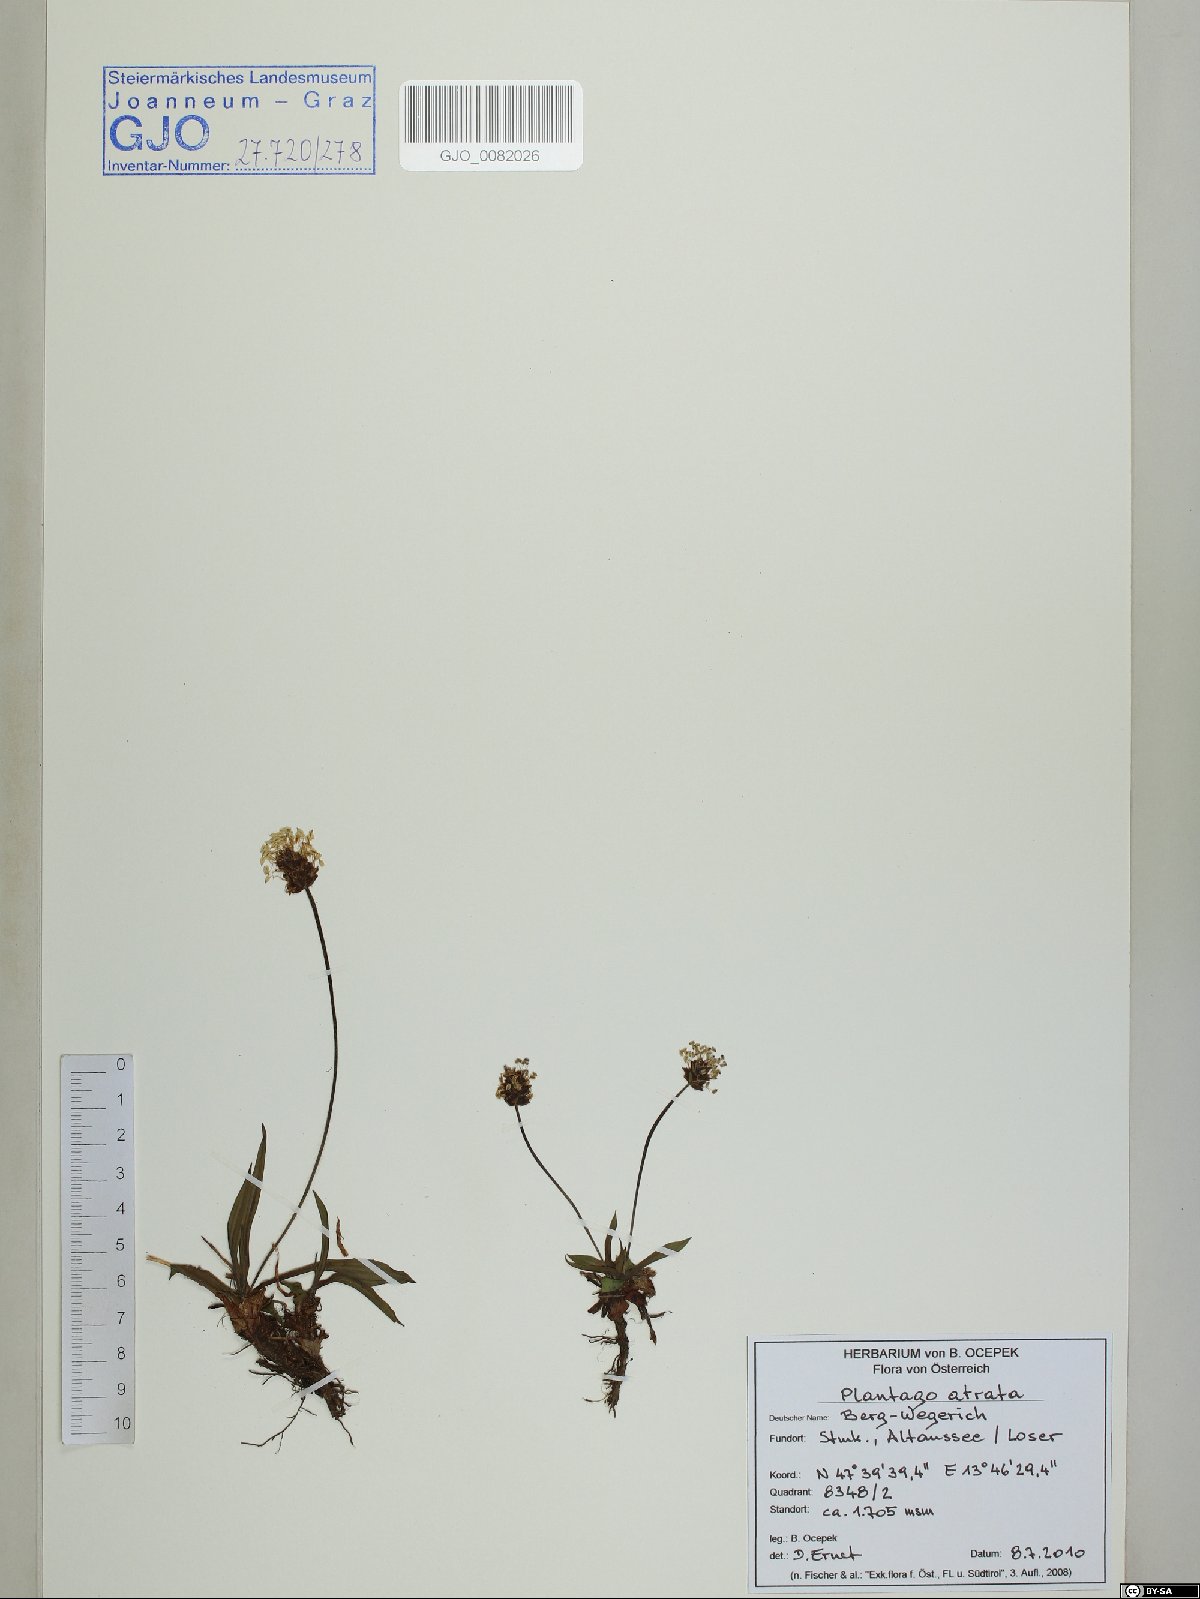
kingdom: Plantae
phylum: Tracheophyta
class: Magnoliopsida
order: Lamiales
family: Plantaginaceae
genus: Plantago
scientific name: Plantago atrata
